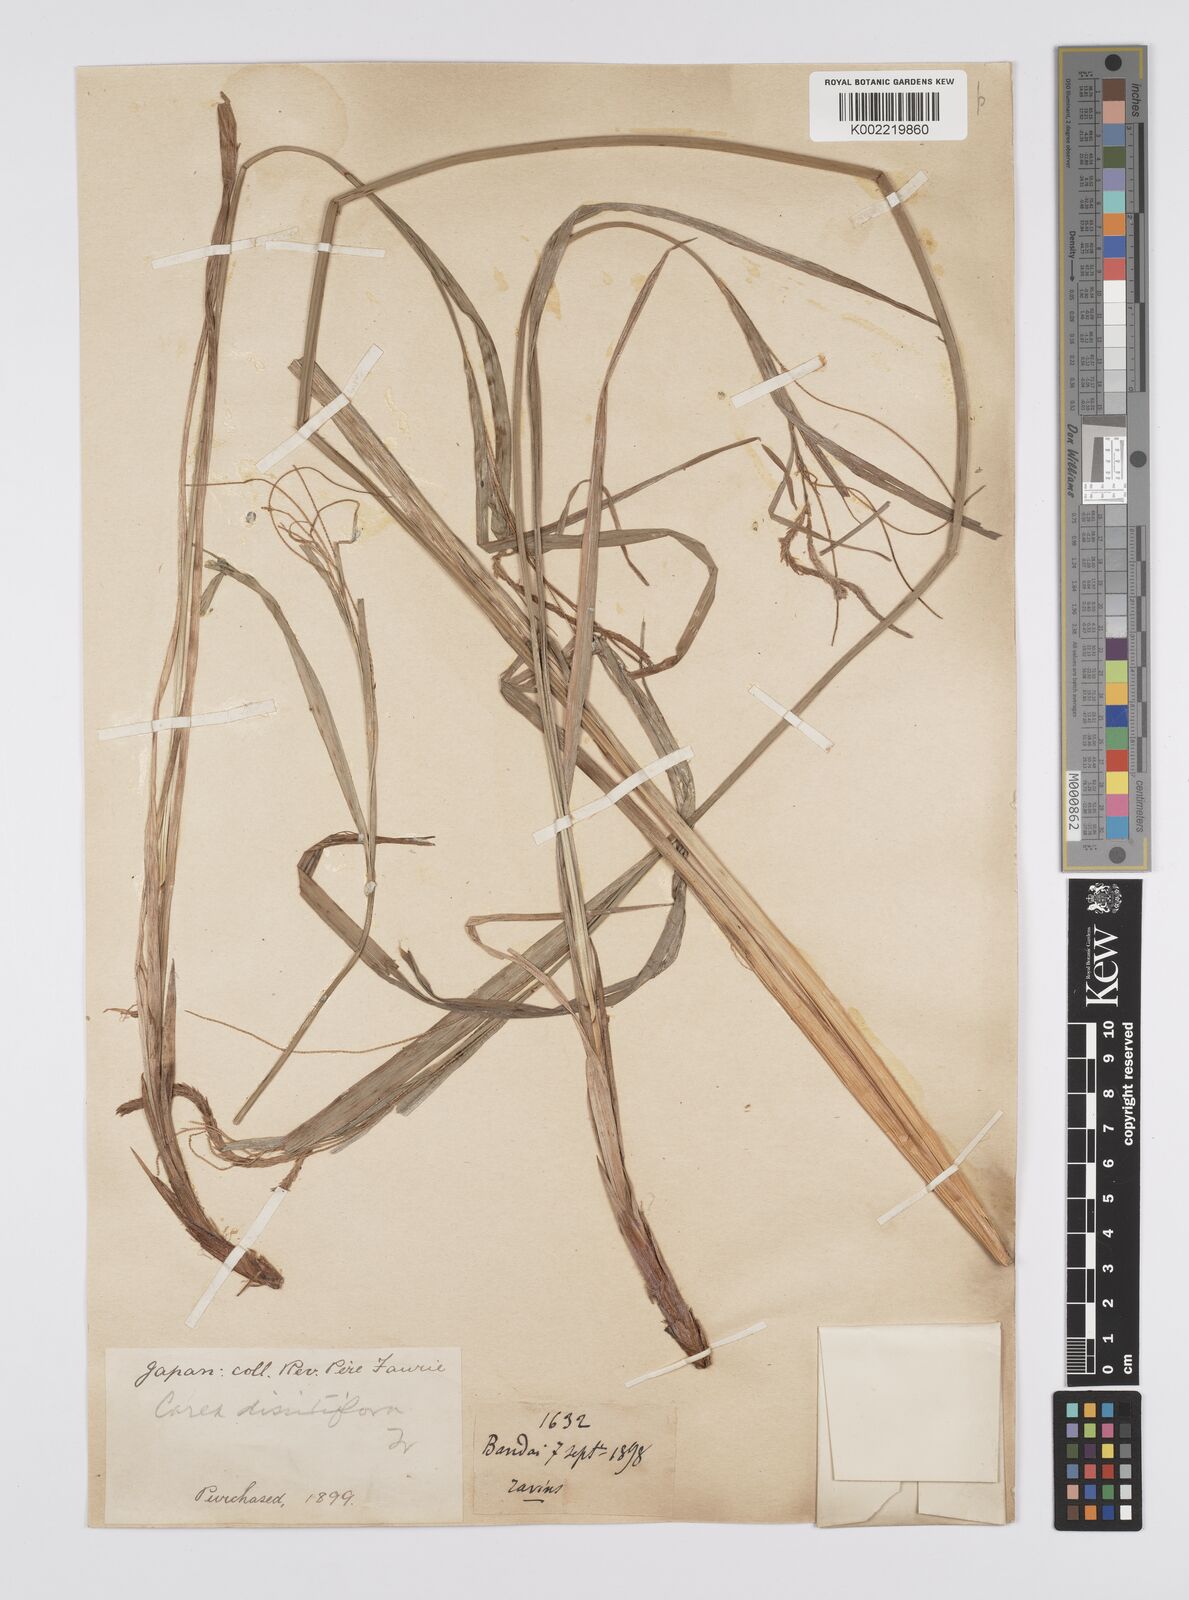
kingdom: Plantae
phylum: Tracheophyta
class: Liliopsida
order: Poales
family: Cyperaceae
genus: Carex
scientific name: Carex dissitiflora
